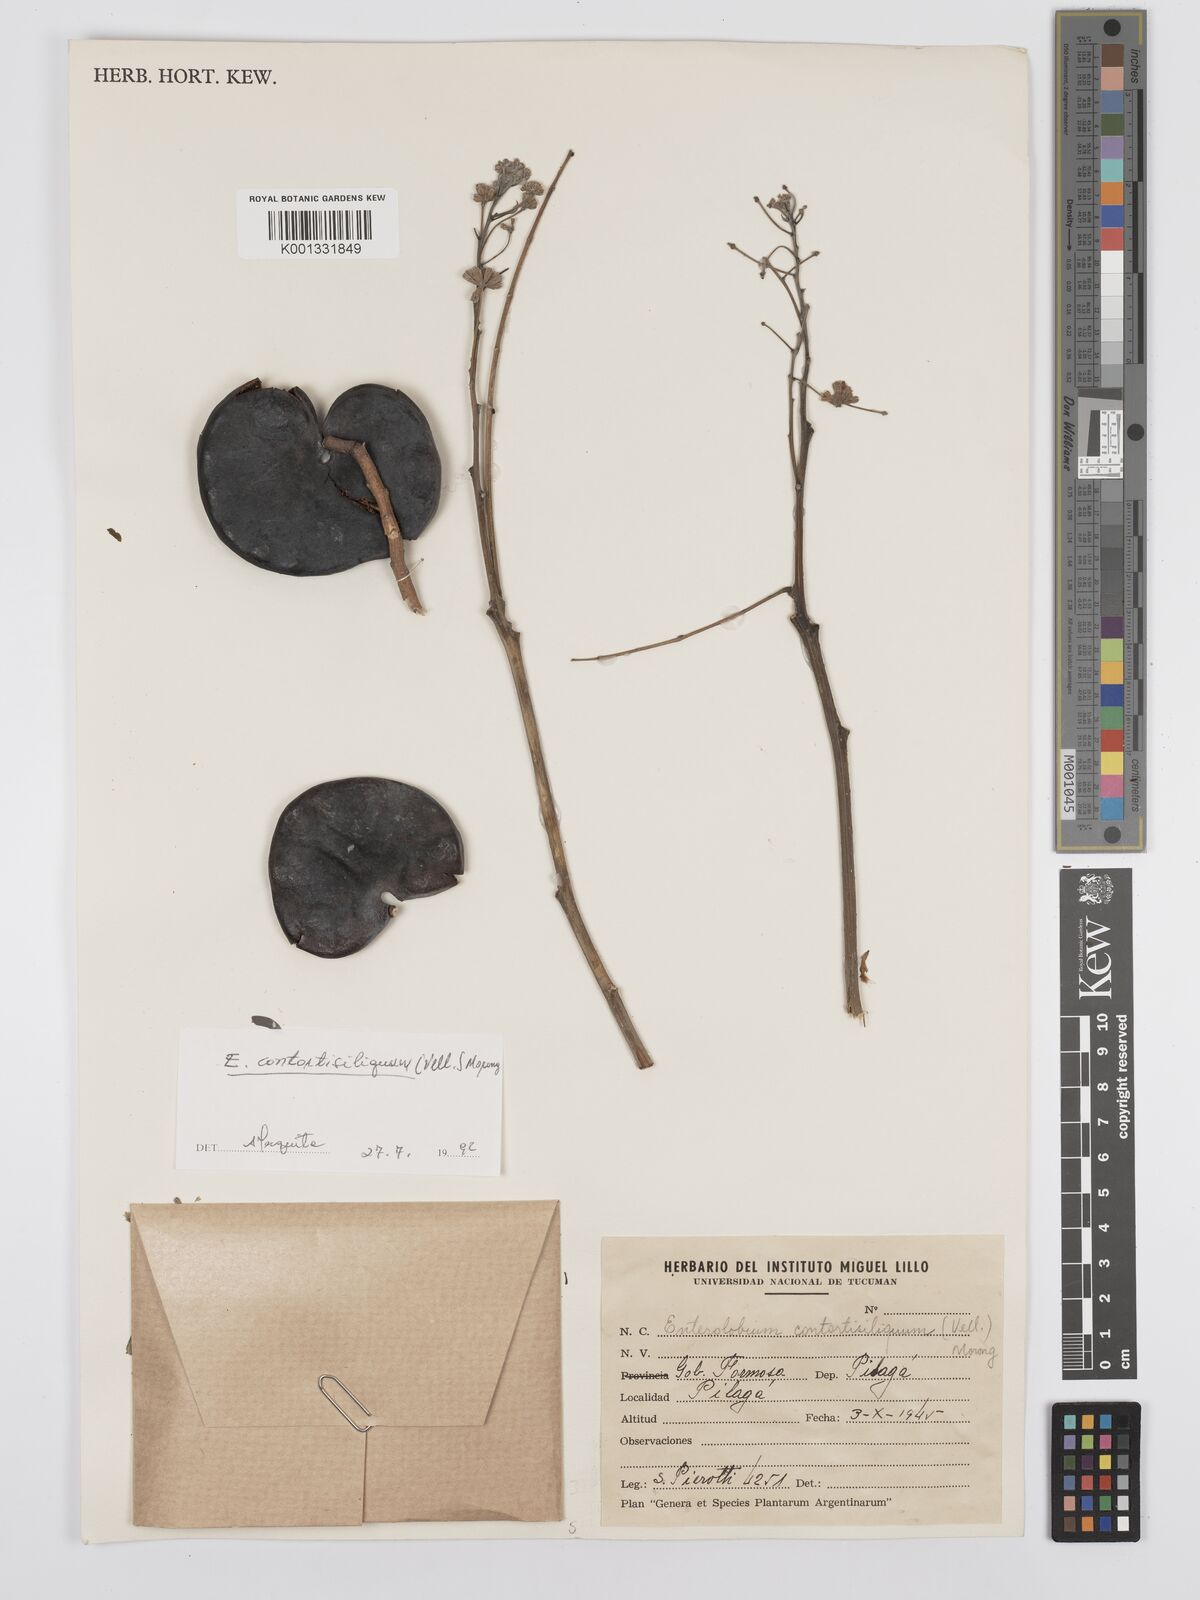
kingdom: Plantae
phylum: Tracheophyta
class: Magnoliopsida
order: Fabales
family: Fabaceae
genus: Enterolobium
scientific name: Enterolobium contortisiliquum
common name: Pacara earpod tree
